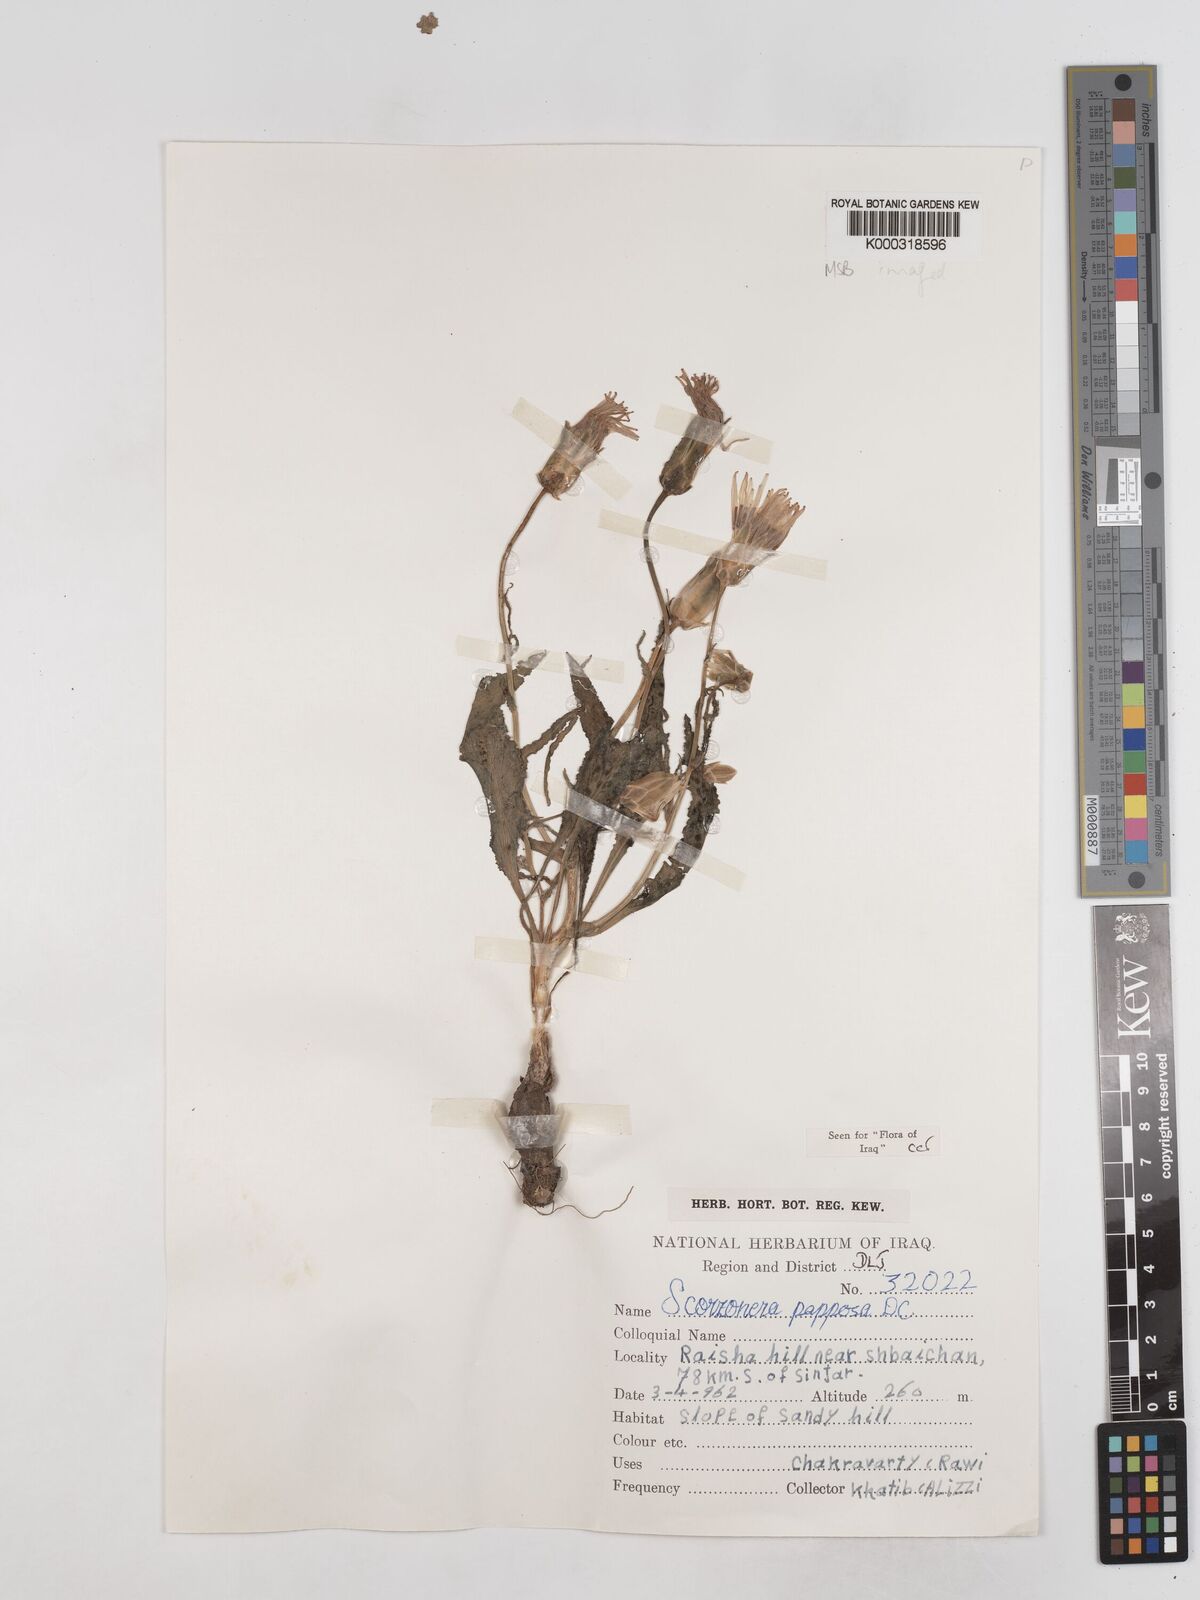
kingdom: Plantae
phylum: Tracheophyta
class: Magnoliopsida
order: Asterales
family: Asteraceae
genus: Pseudopodospermum
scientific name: Pseudopodospermum papposum
